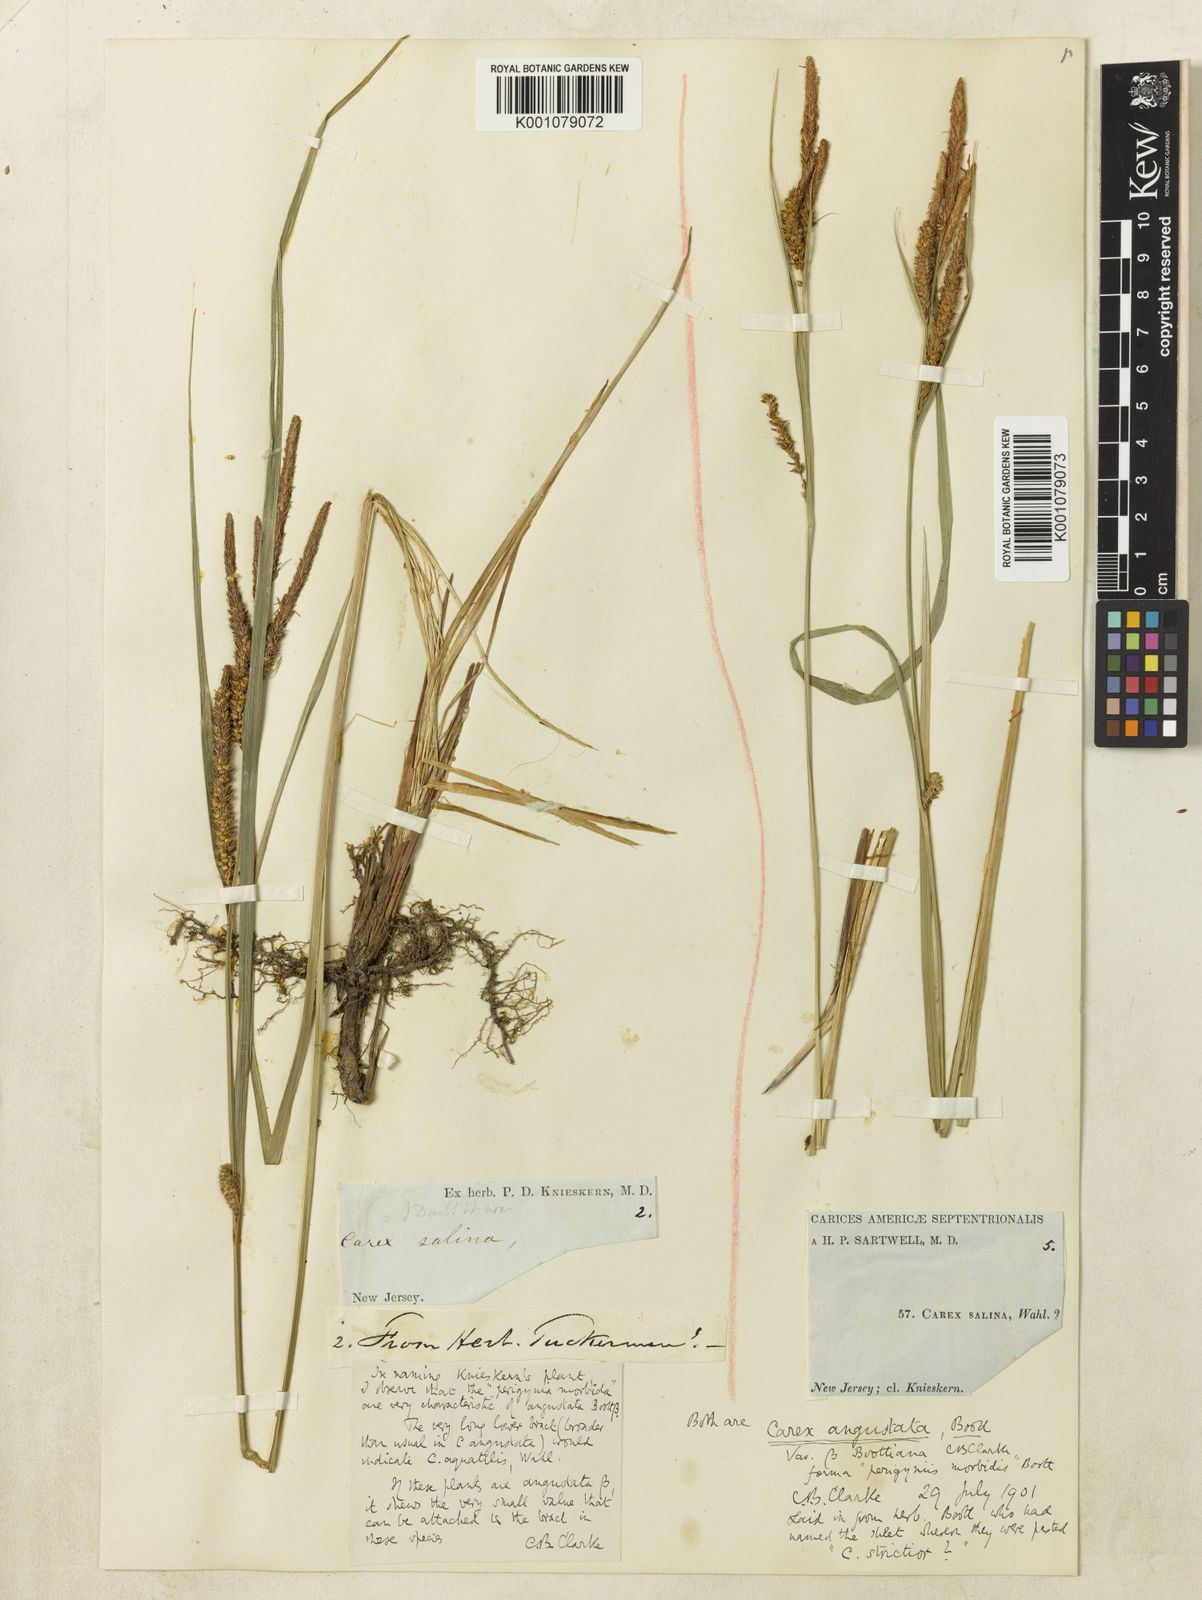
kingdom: Plantae
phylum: Tracheophyta
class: Liliopsida
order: Poales
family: Cyperaceae
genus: Carex
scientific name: Carex
